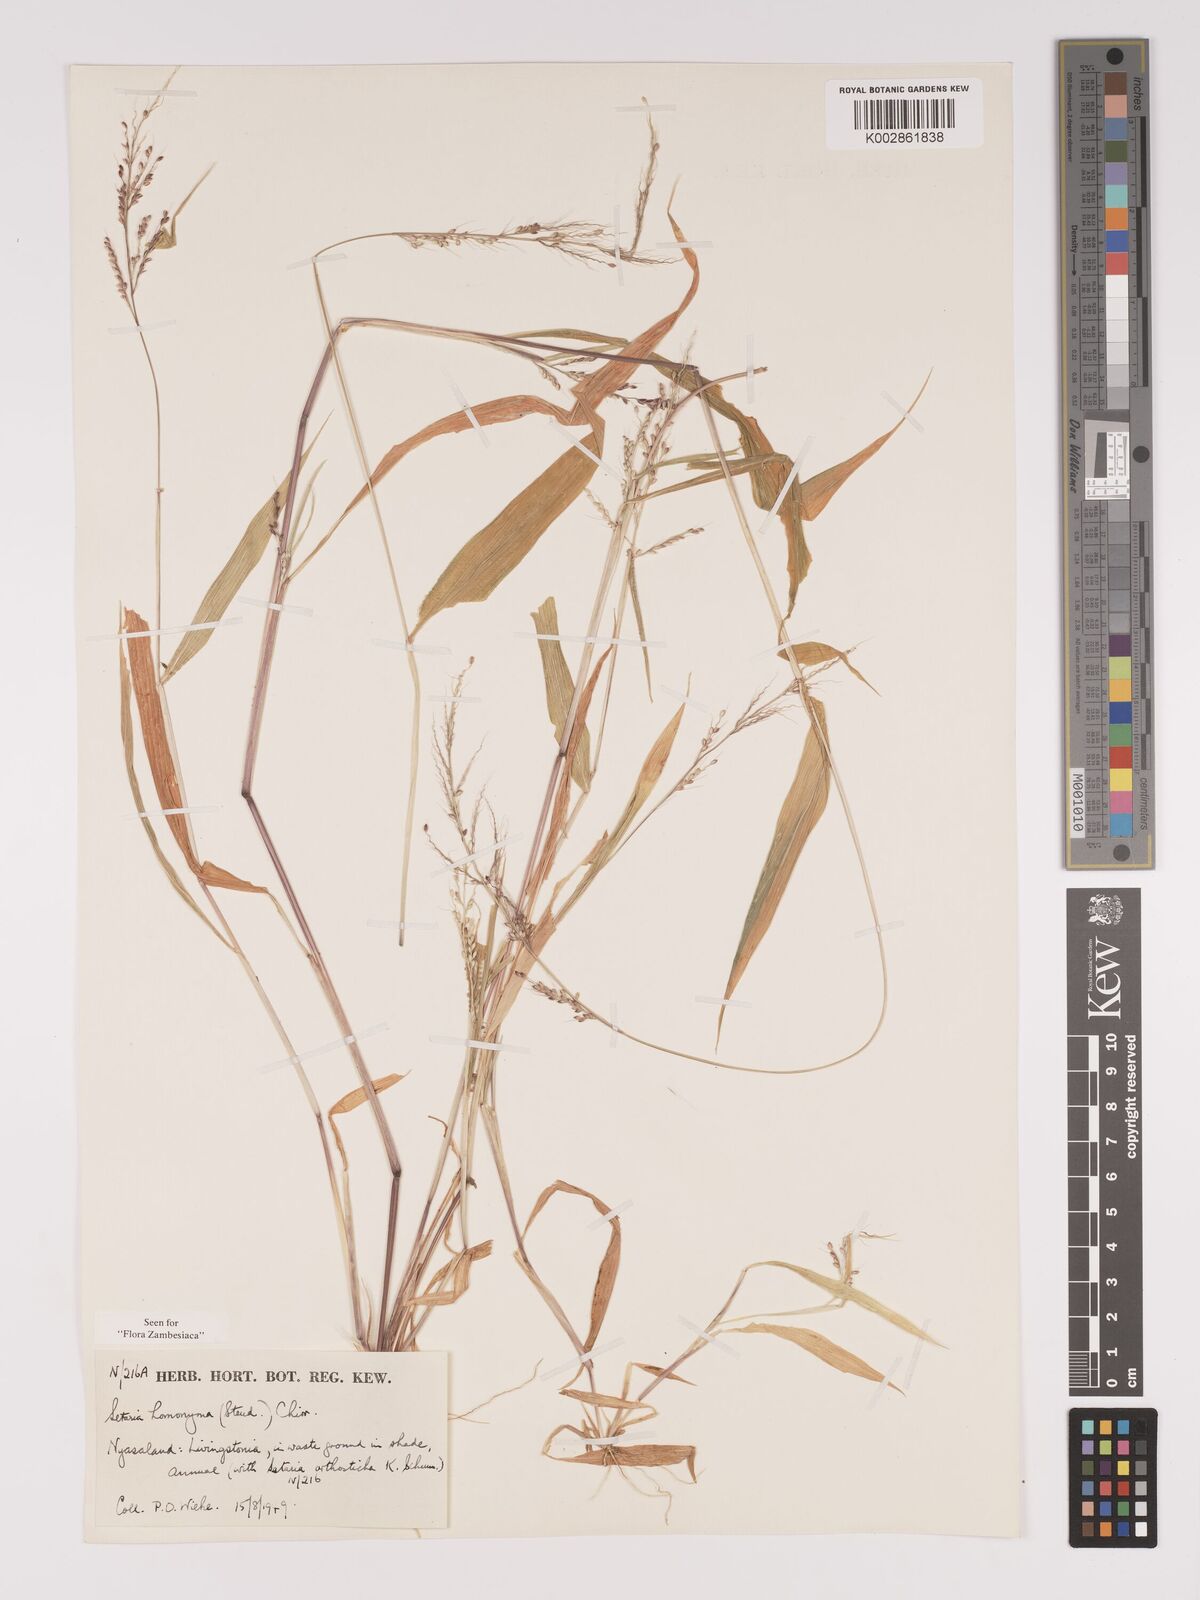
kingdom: Plantae
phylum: Tracheophyta
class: Liliopsida
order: Poales
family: Poaceae
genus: Setaria
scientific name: Setaria homonyma
